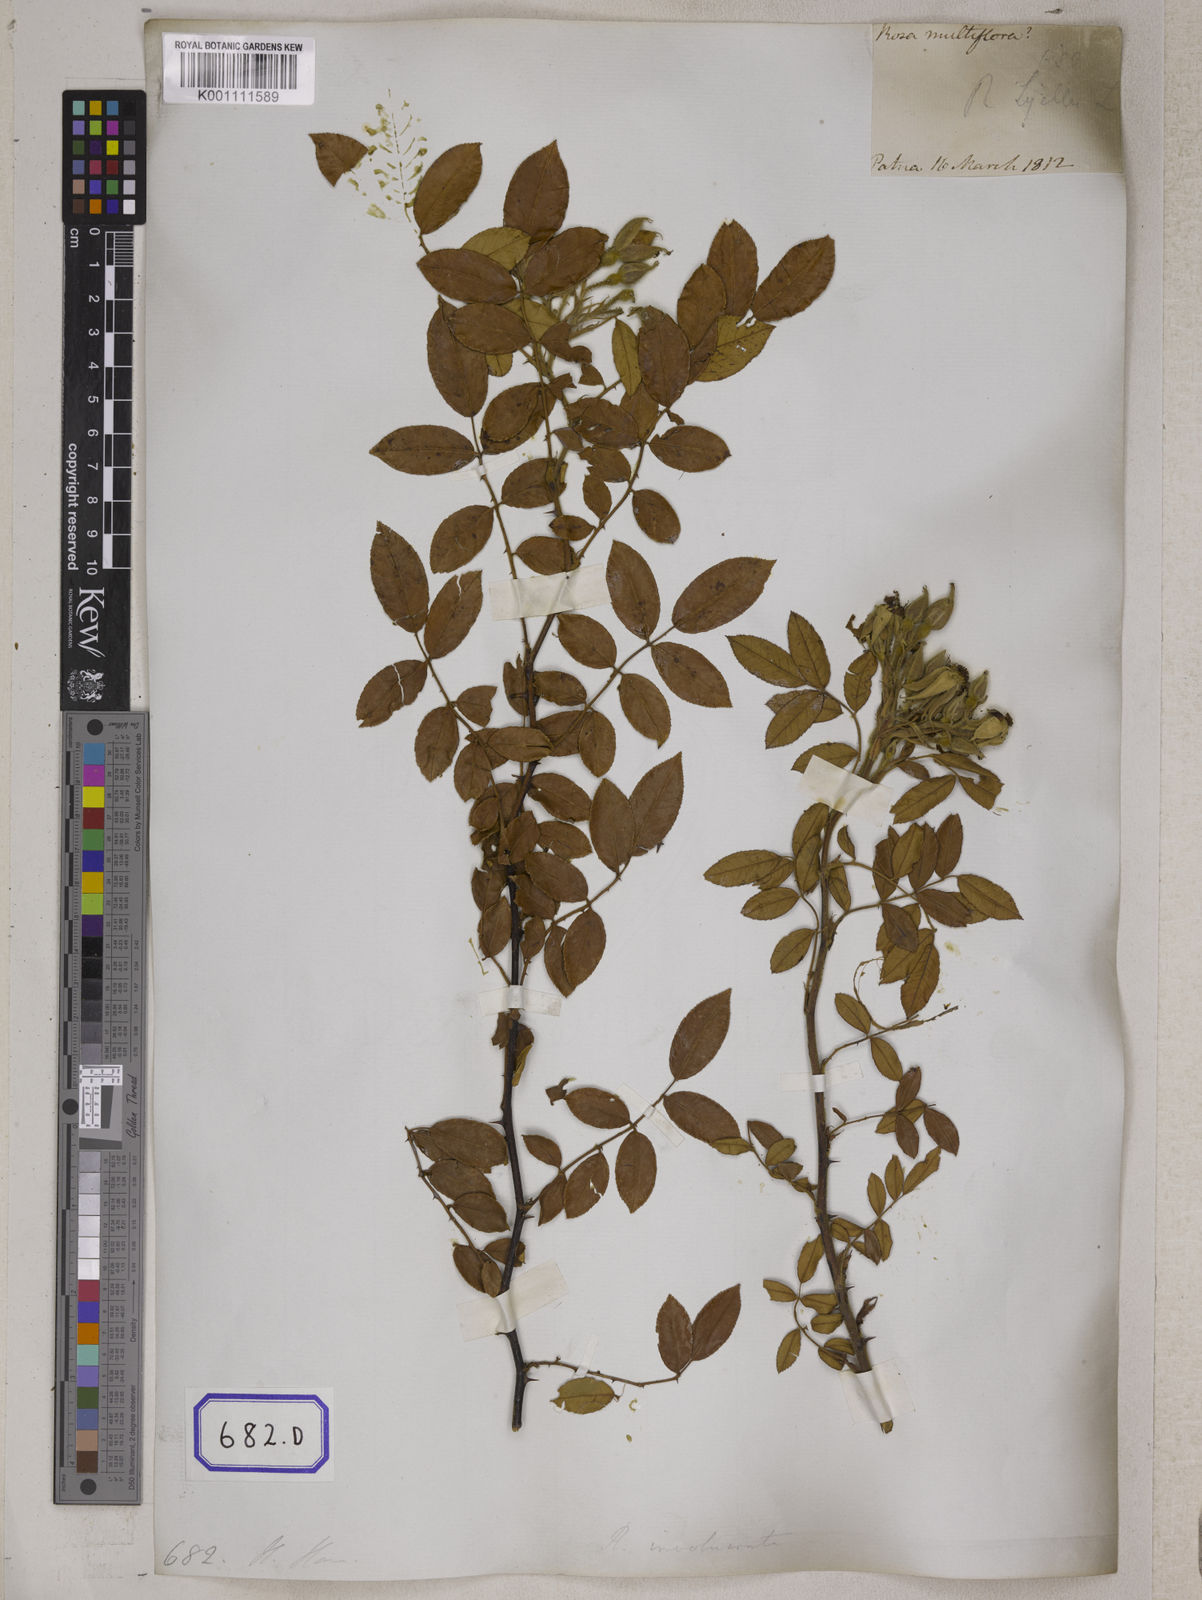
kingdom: Plantae
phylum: Tracheophyta
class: Magnoliopsida
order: Rosales
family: Rosaceae
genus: Rosa
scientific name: Rosa clinophylla
